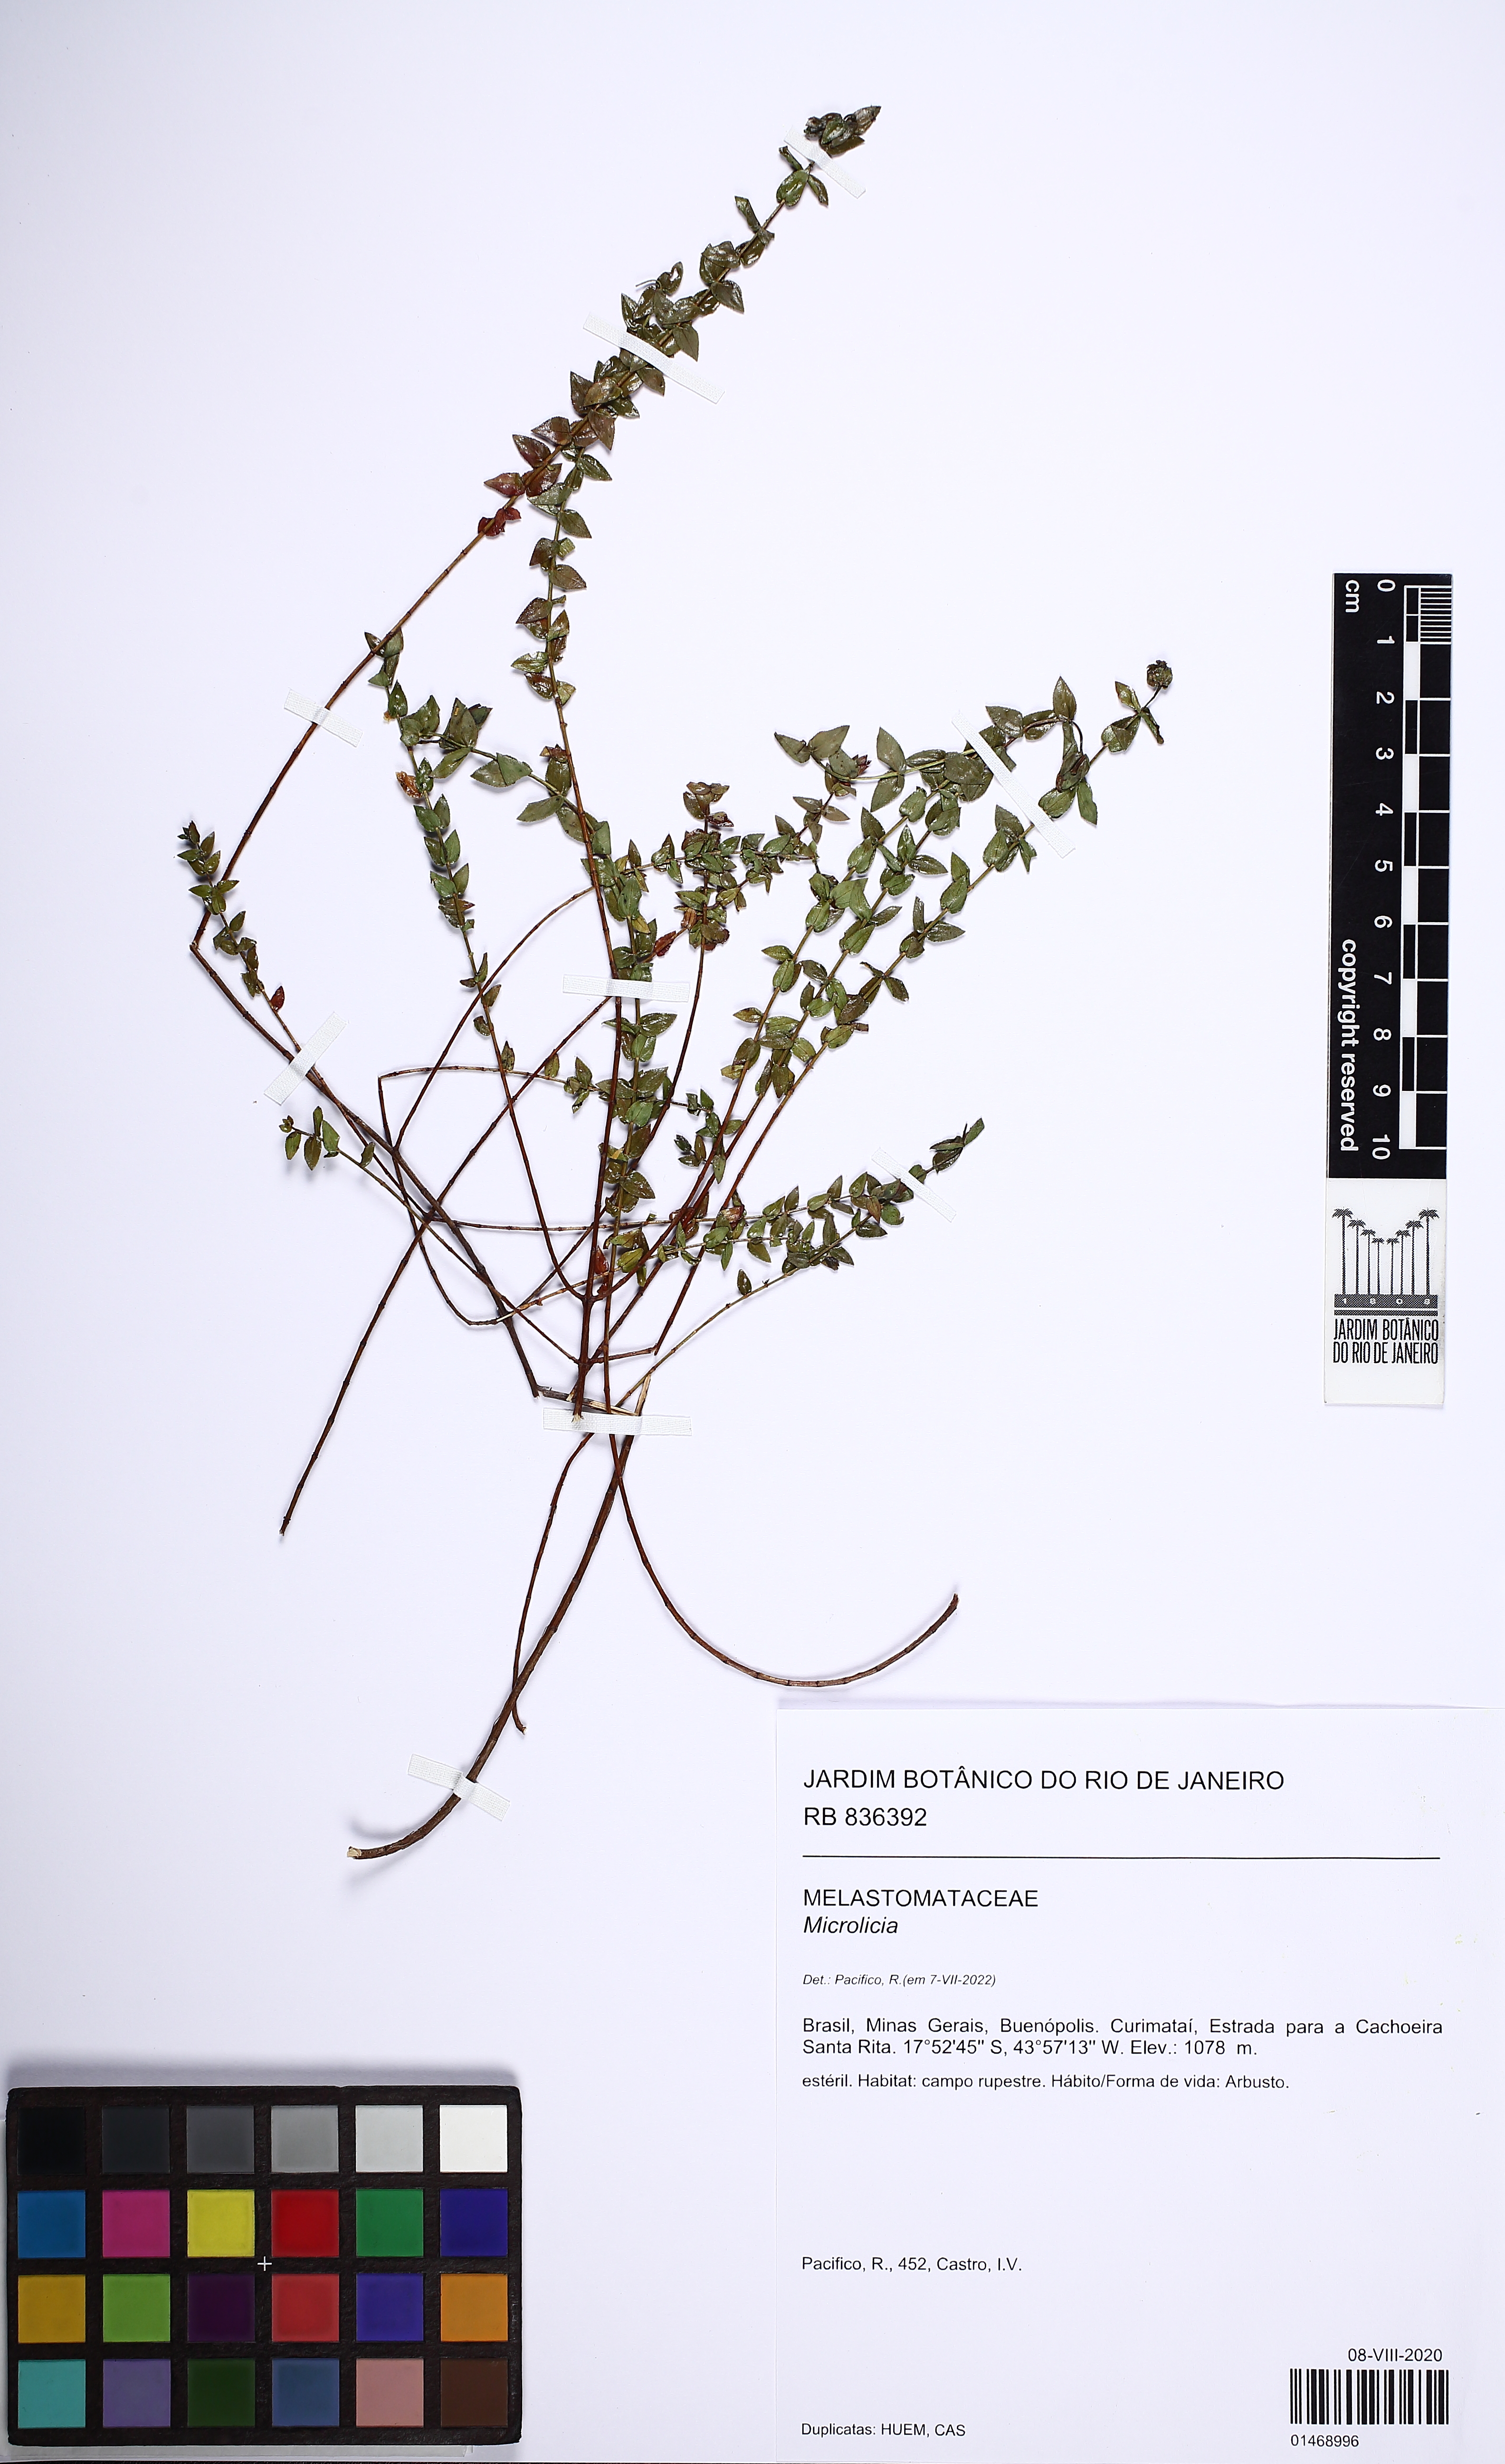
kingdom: Plantae
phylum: Tracheophyta
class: Magnoliopsida
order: Myrtales
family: Melastomataceae
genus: Microlicia
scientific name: Microlicia
